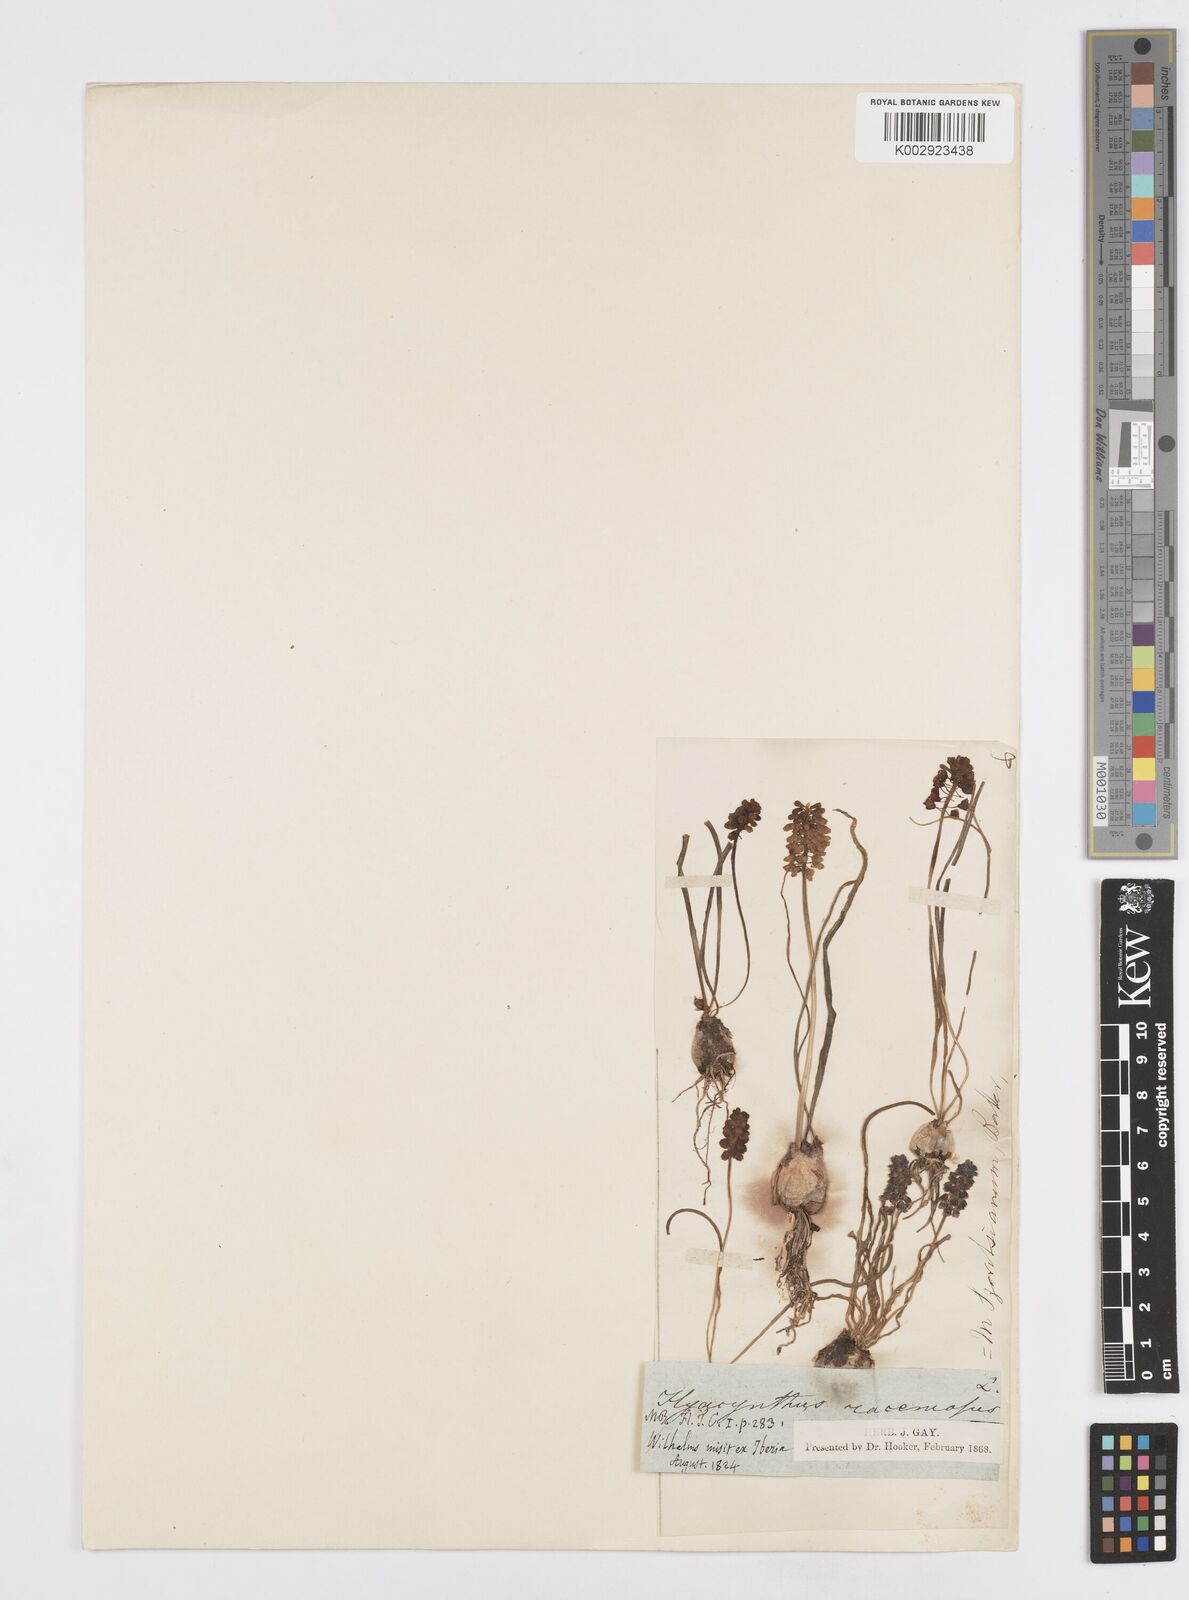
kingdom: Plantae
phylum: Tracheophyta
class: Liliopsida
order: Asparagales
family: Asparagaceae
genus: Muscari
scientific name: Muscari neglectum
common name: Grape-hyacinth
